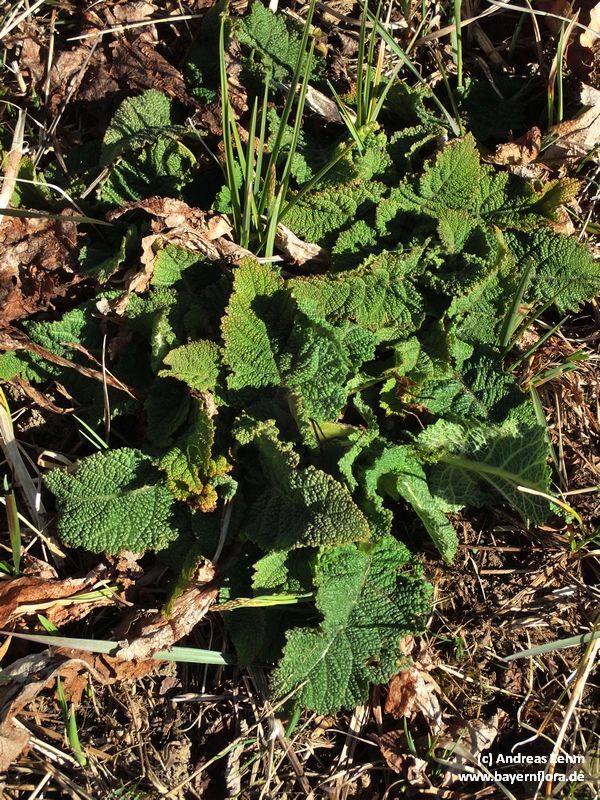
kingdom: Plantae
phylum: Tracheophyta
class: Magnoliopsida
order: Lamiales
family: Lamiaceae
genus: Salvia
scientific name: Salvia pratensis
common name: Meadow sage
